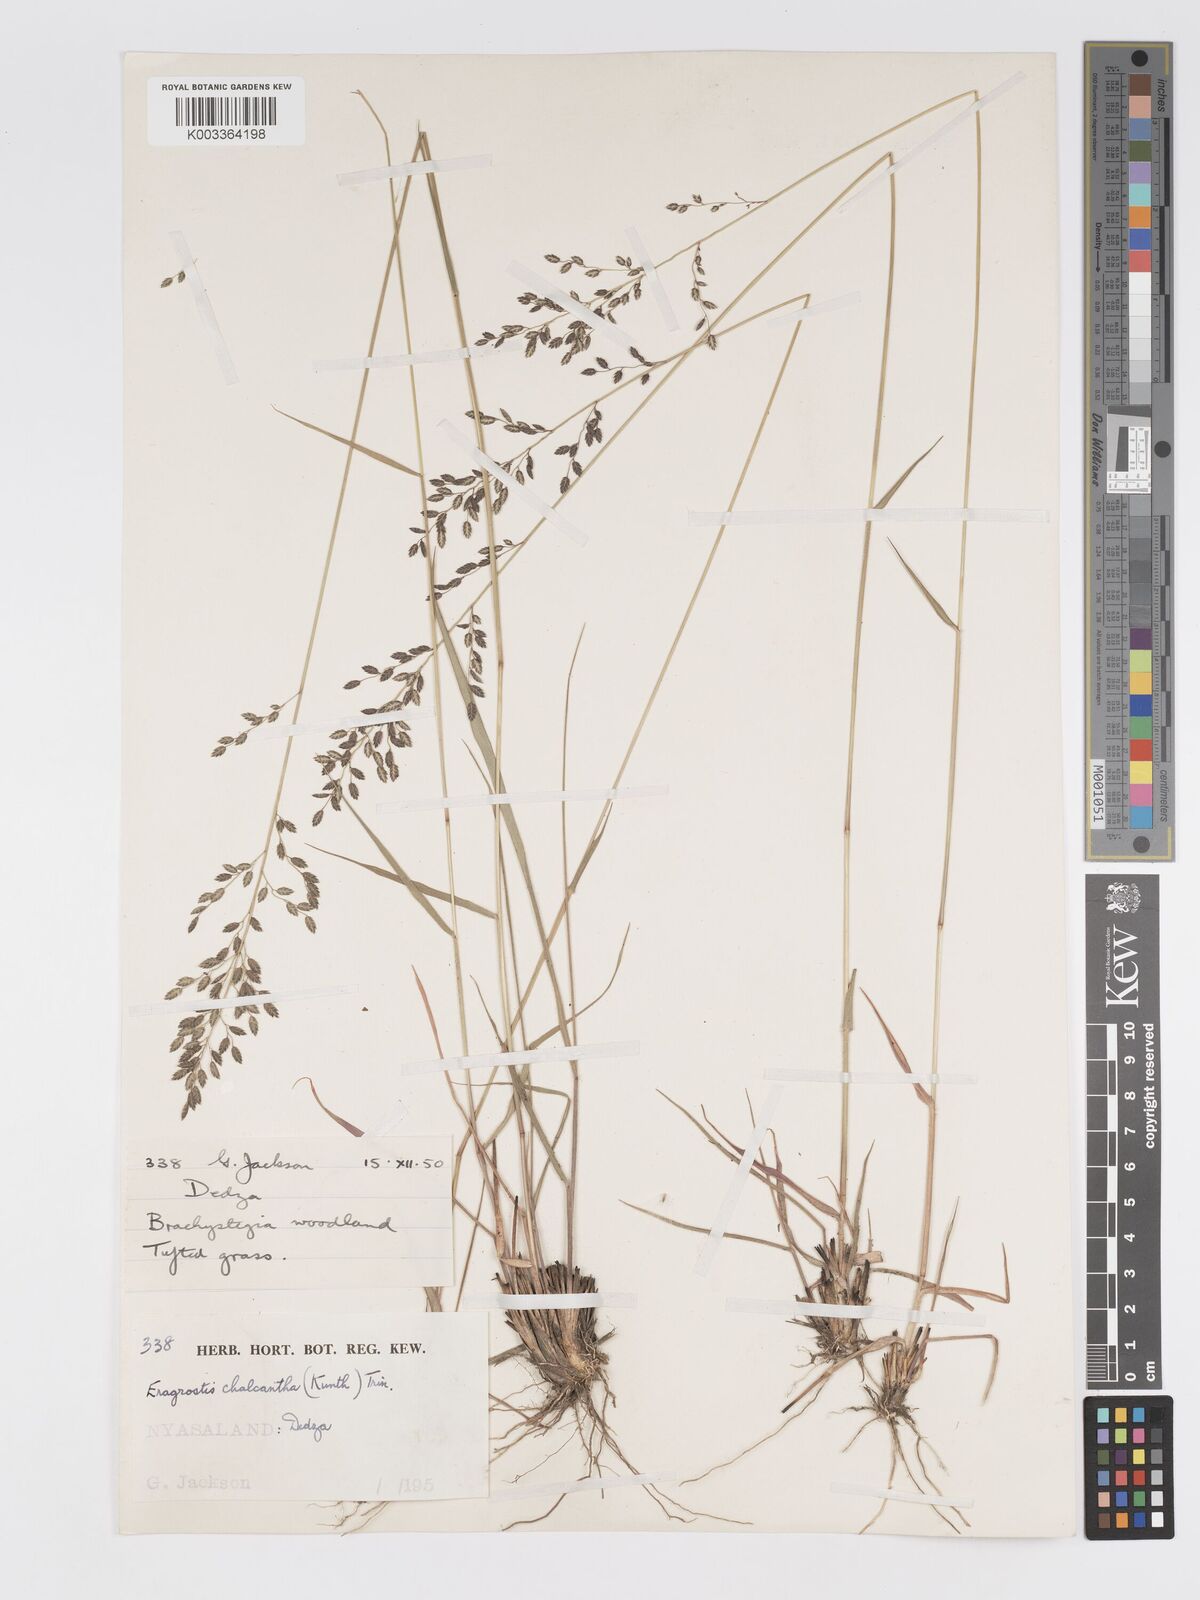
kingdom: Plantae
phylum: Tracheophyta
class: Liliopsida
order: Poales
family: Poaceae
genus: Eragrostis
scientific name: Eragrostis racemosa
